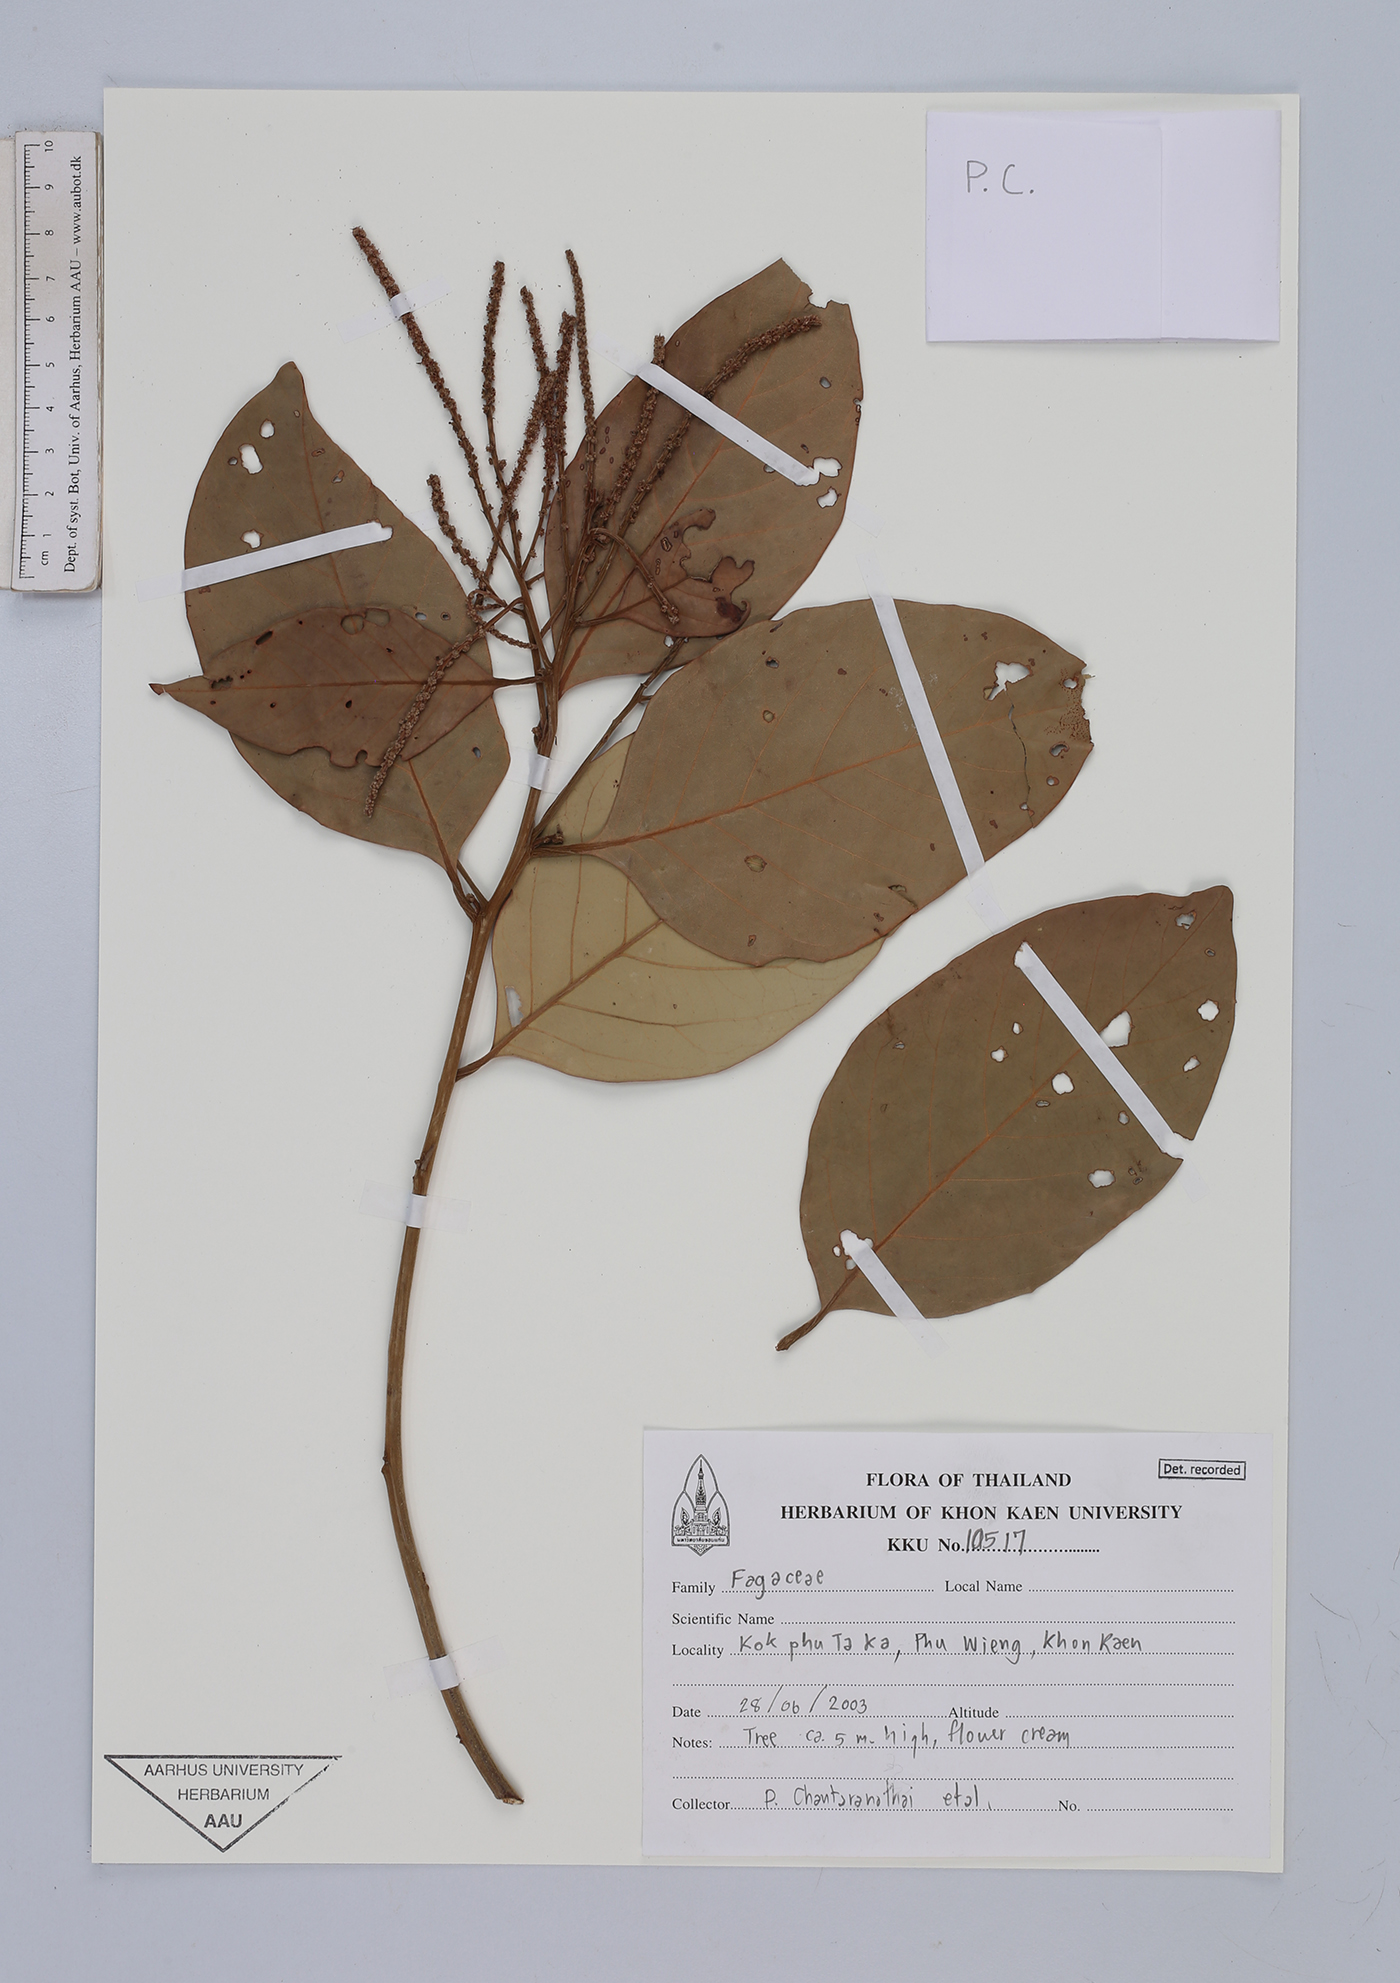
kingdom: Plantae
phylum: Tracheophyta
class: Magnoliopsida
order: Fagales
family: Fagaceae
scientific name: Fagaceae
